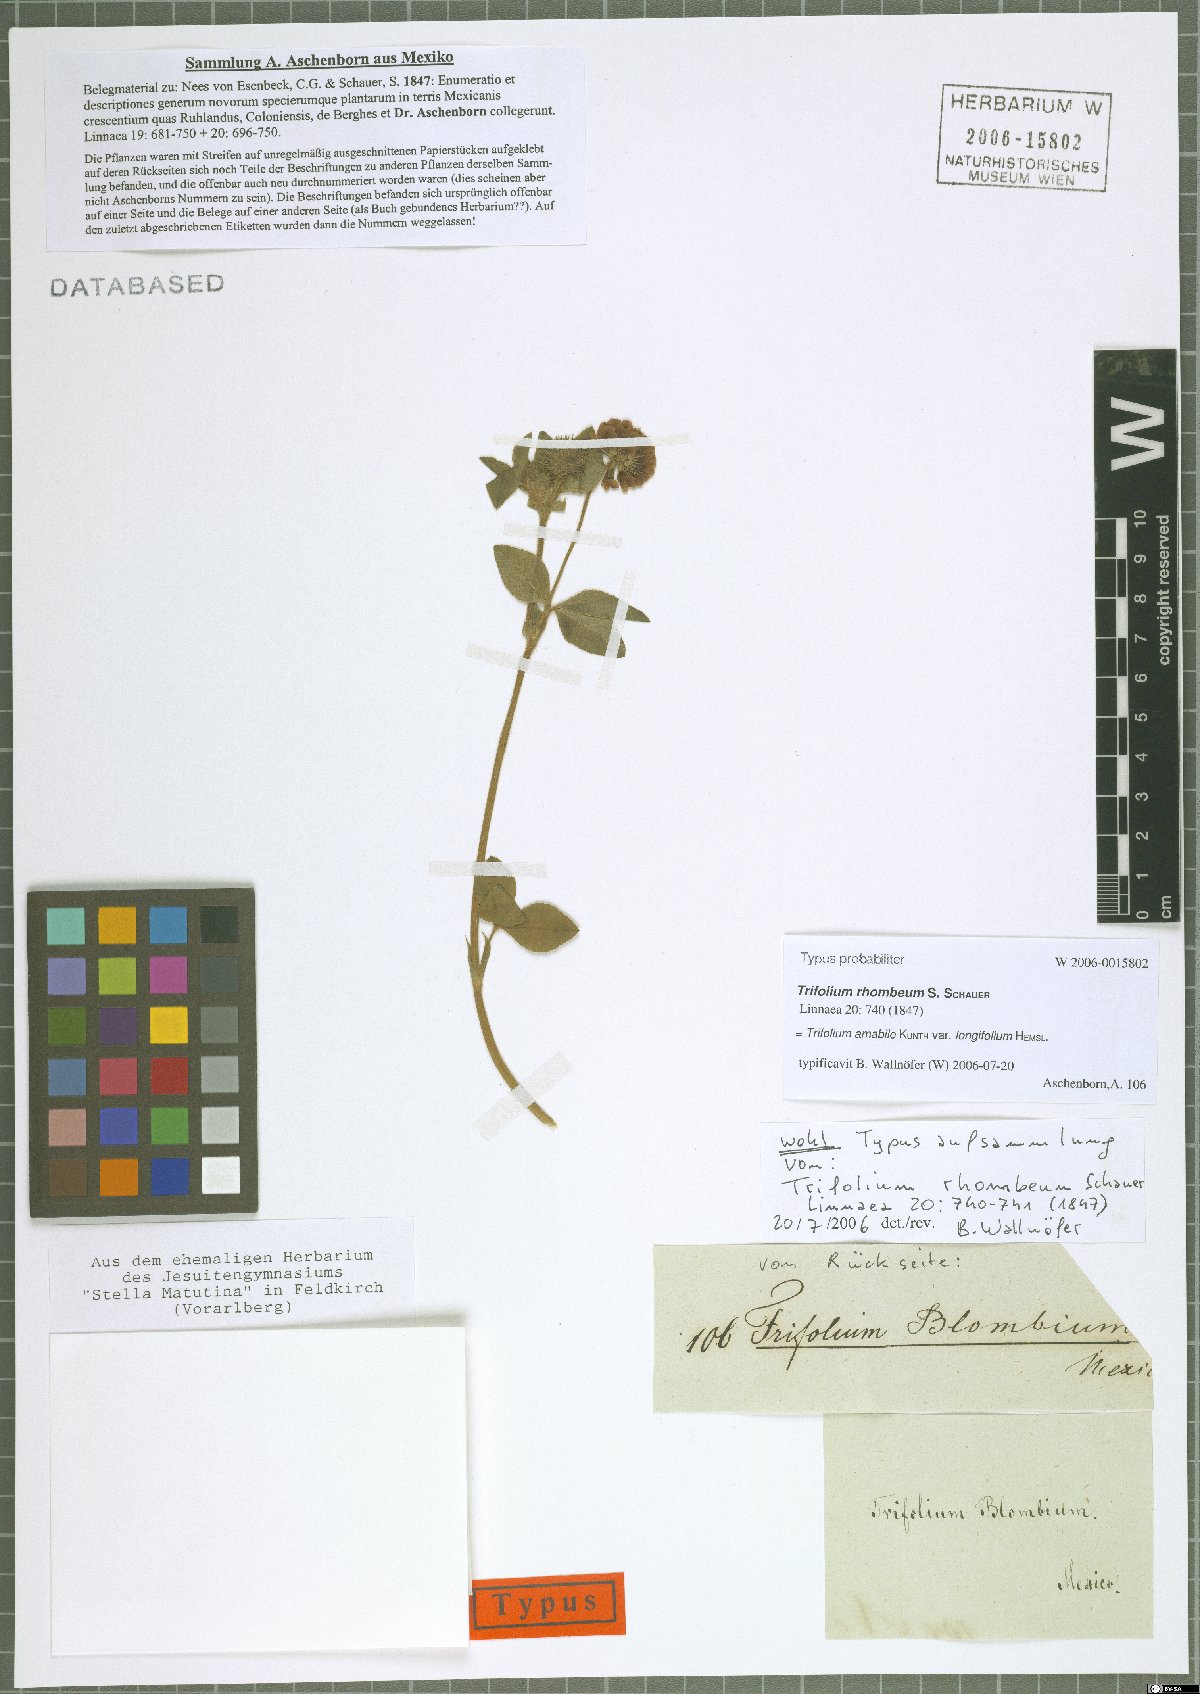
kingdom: Plantae
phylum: Tracheophyta
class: Magnoliopsida
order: Fabales
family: Fabaceae
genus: Trifolium
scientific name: Trifolium amabile
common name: Aztec clover
